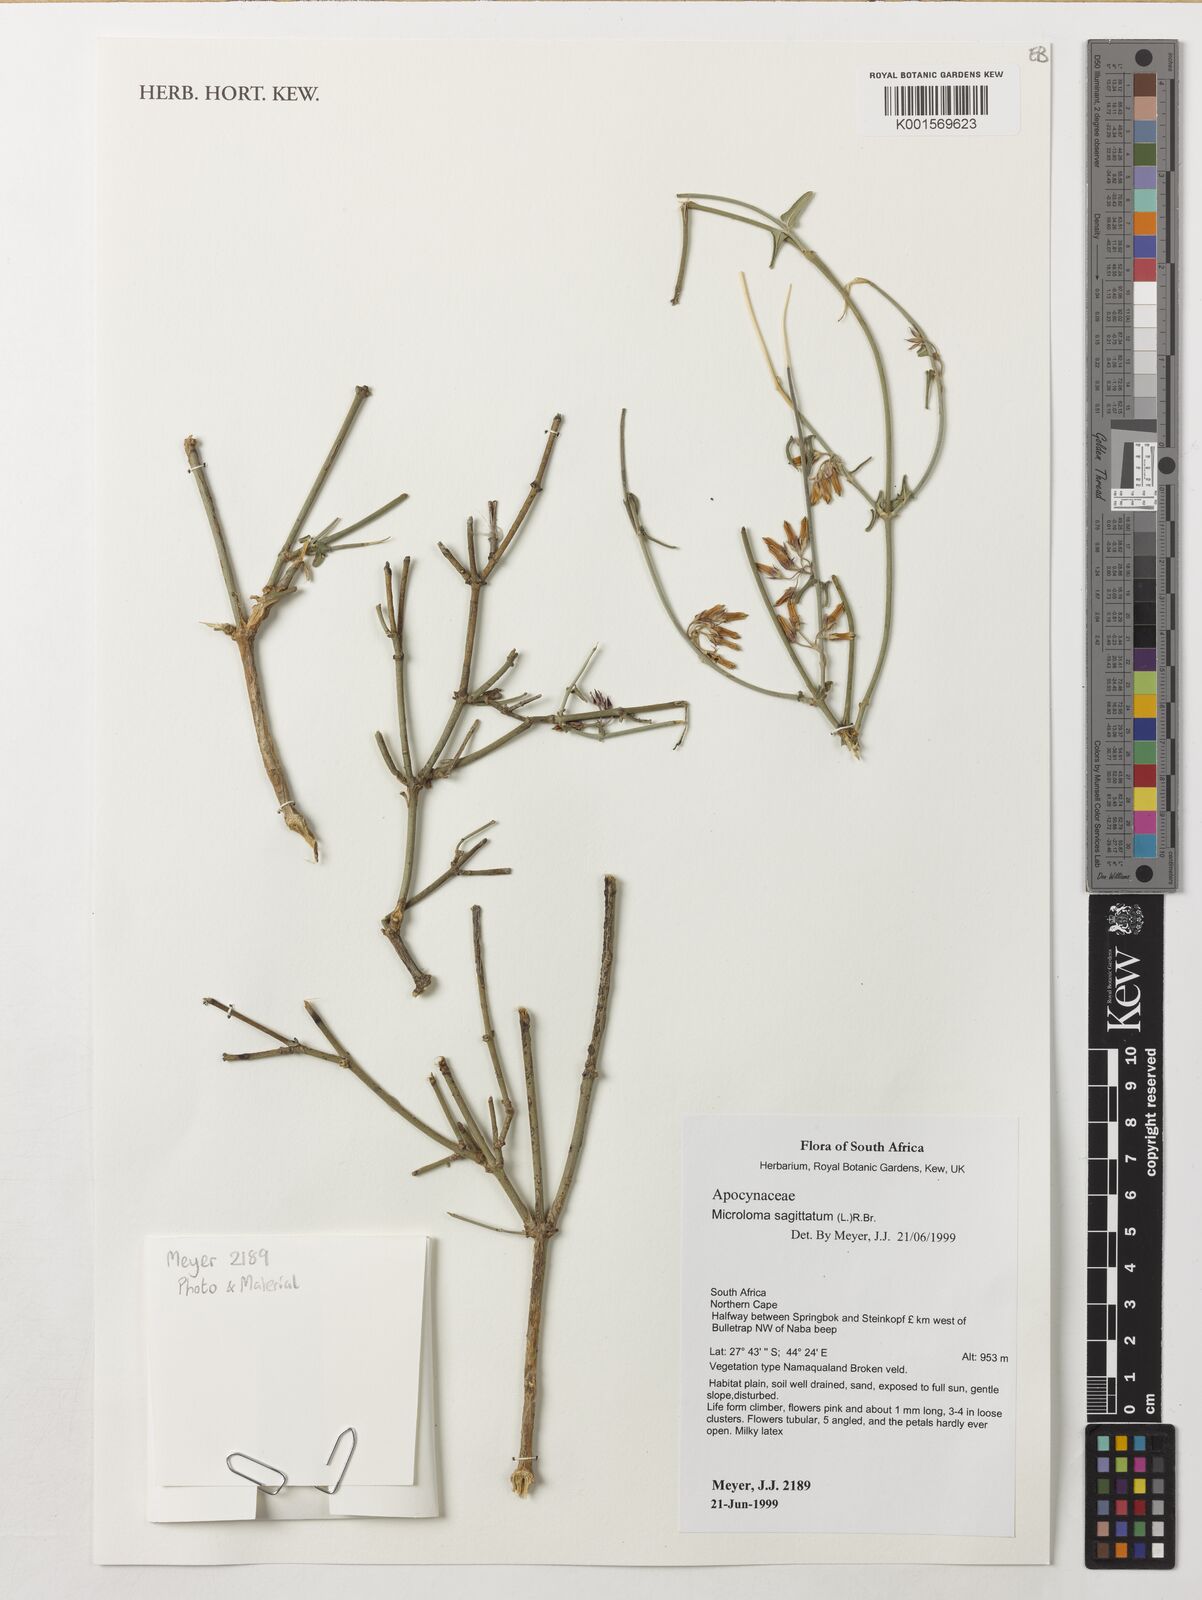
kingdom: Plantae
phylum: Tracheophyta
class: Magnoliopsida
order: Gentianales
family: Apocynaceae
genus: Microloma
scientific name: Microloma sagittatum
